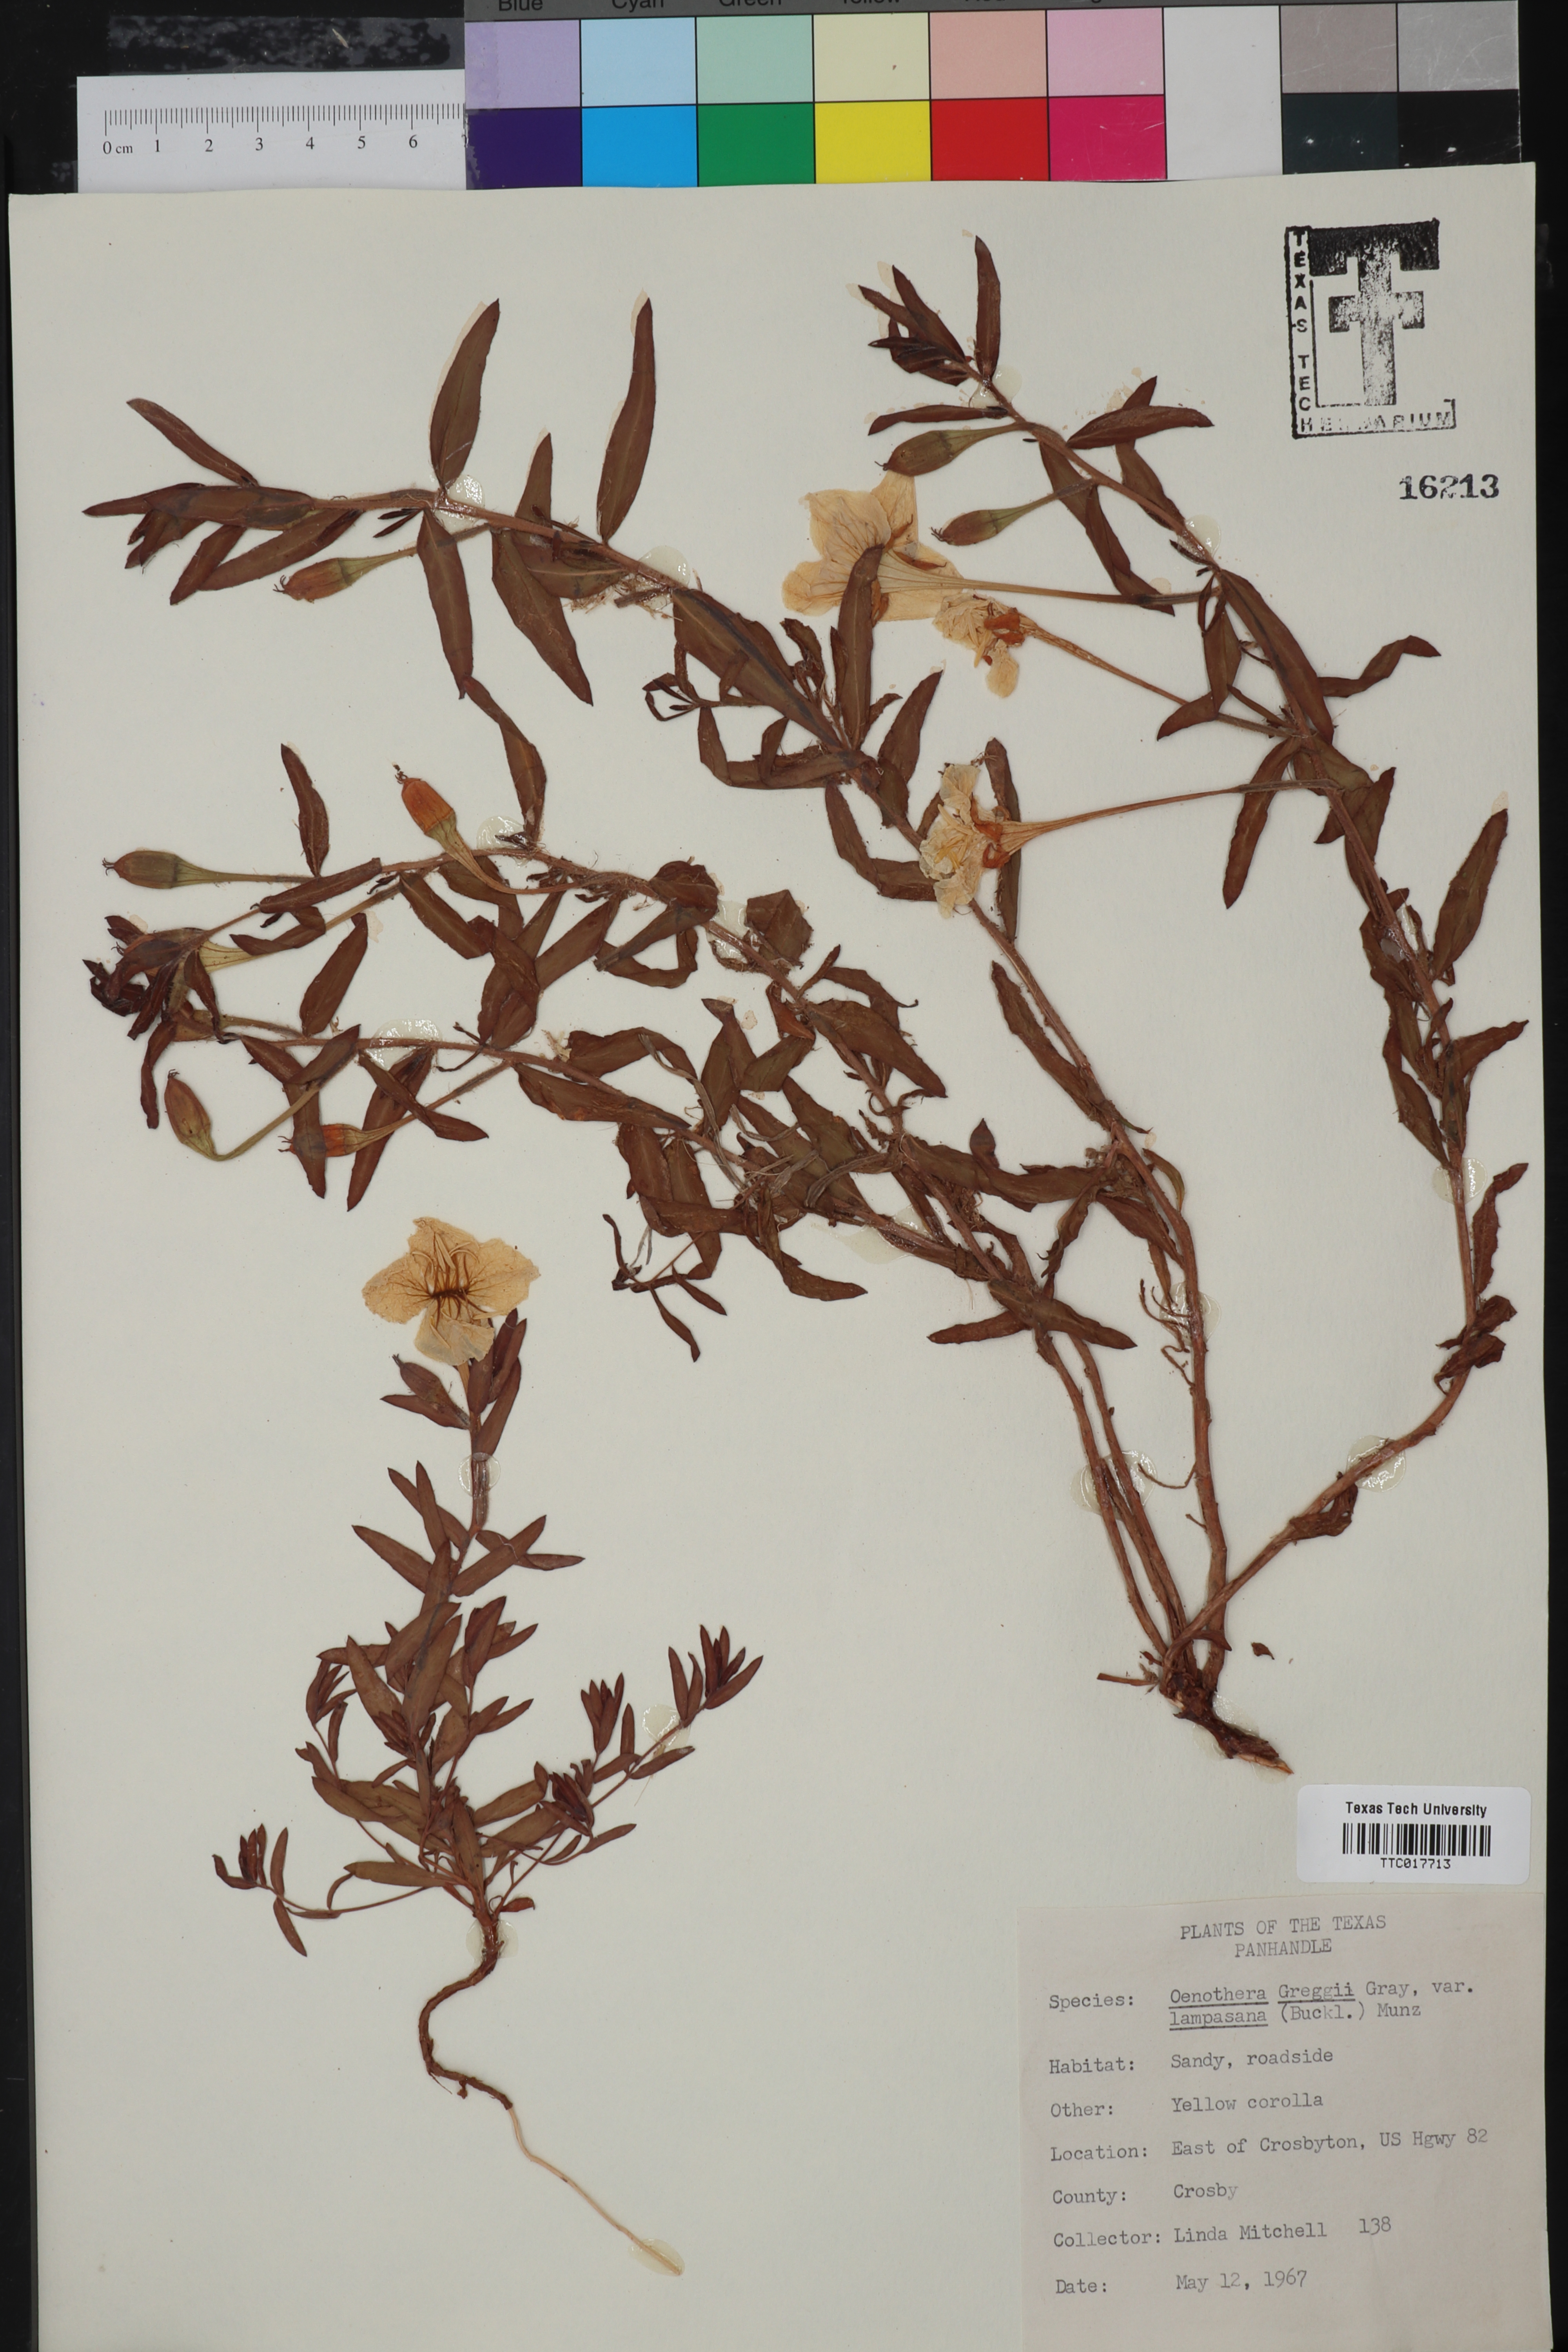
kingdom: Plantae
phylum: Tracheophyta
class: Magnoliopsida
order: Myrtales
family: Onagraceae
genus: Oenothera
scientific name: Oenothera hartwegii
